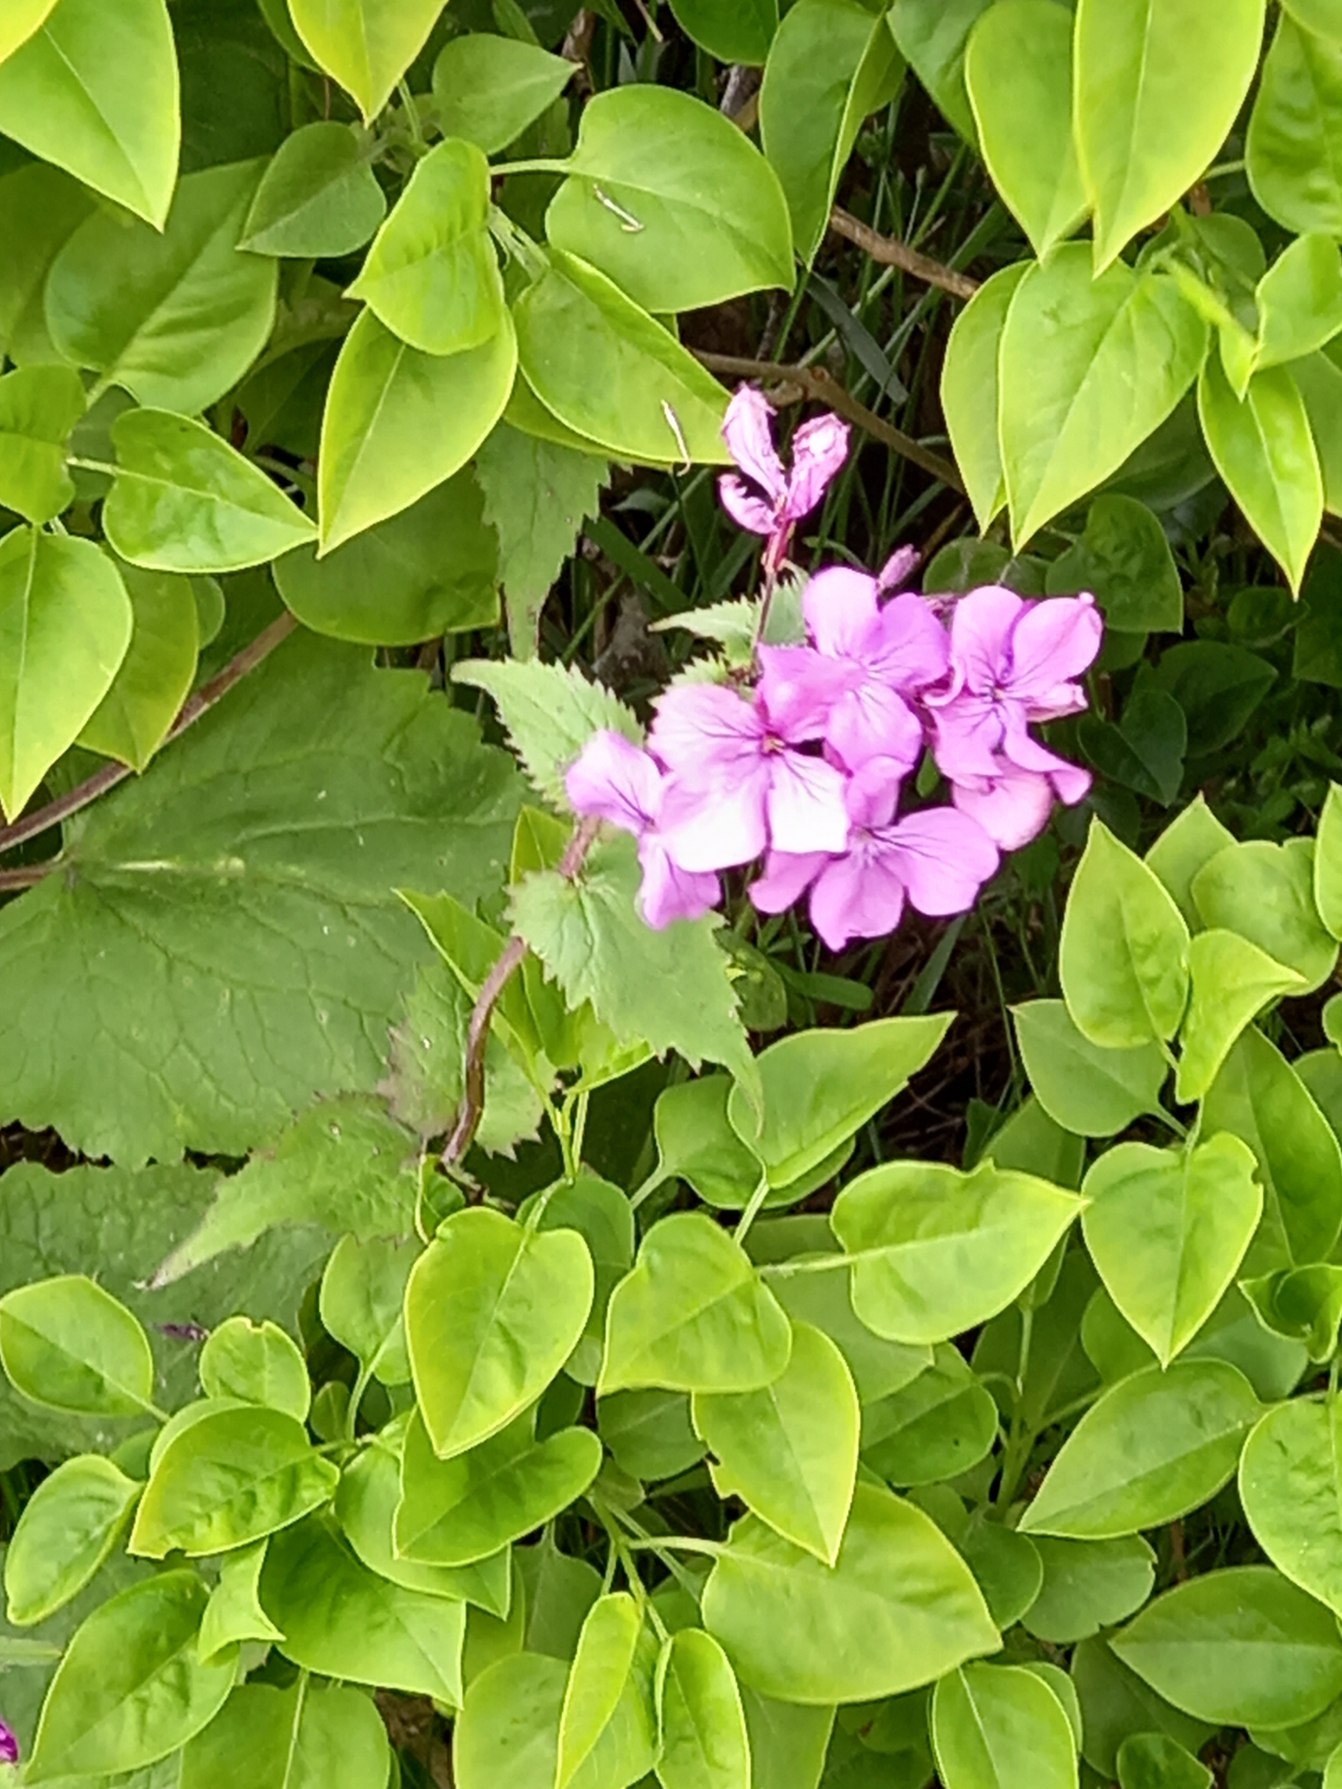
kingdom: Plantae
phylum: Tracheophyta
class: Magnoliopsida
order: Brassicales
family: Brassicaceae
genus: Lunaria
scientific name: Lunaria annua
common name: Judaspenge
